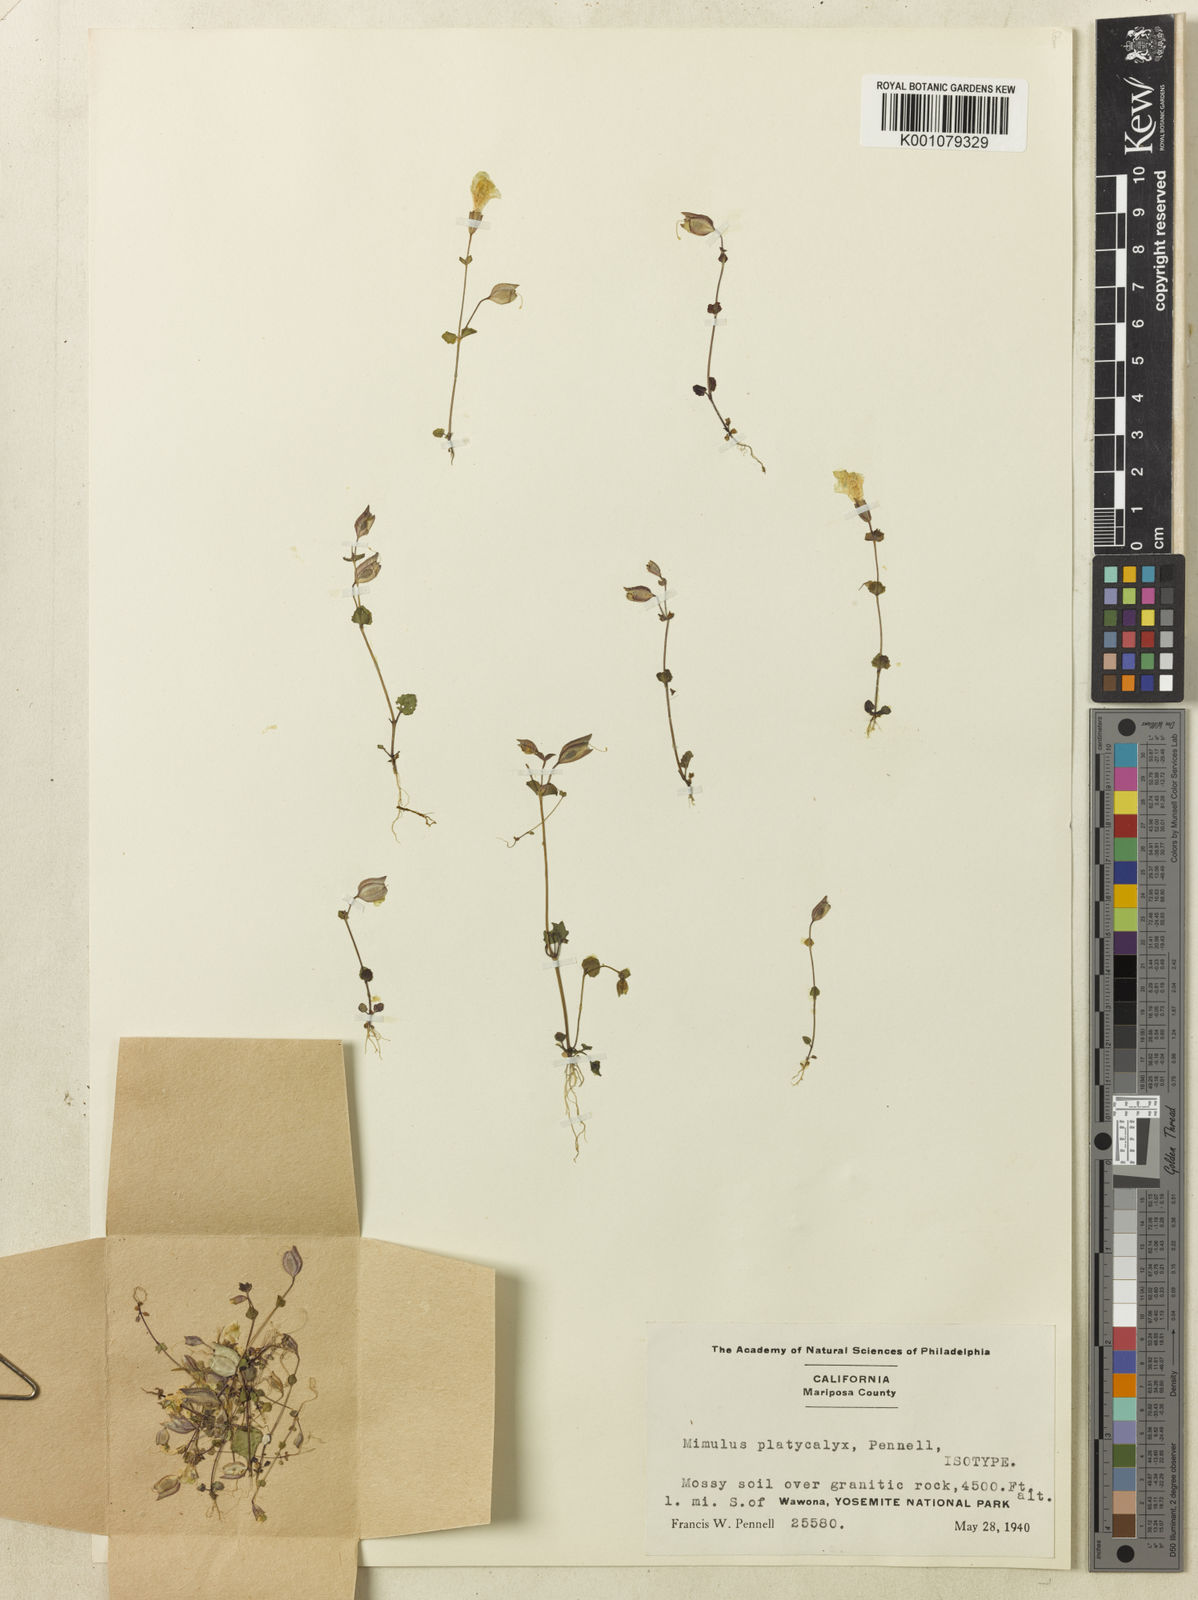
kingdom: Plantae
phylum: Tracheophyta
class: Magnoliopsida
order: Lamiales
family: Phrymaceae
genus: Erythranthe
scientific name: Erythranthe microphylla
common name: Bentham's monkeyflower
